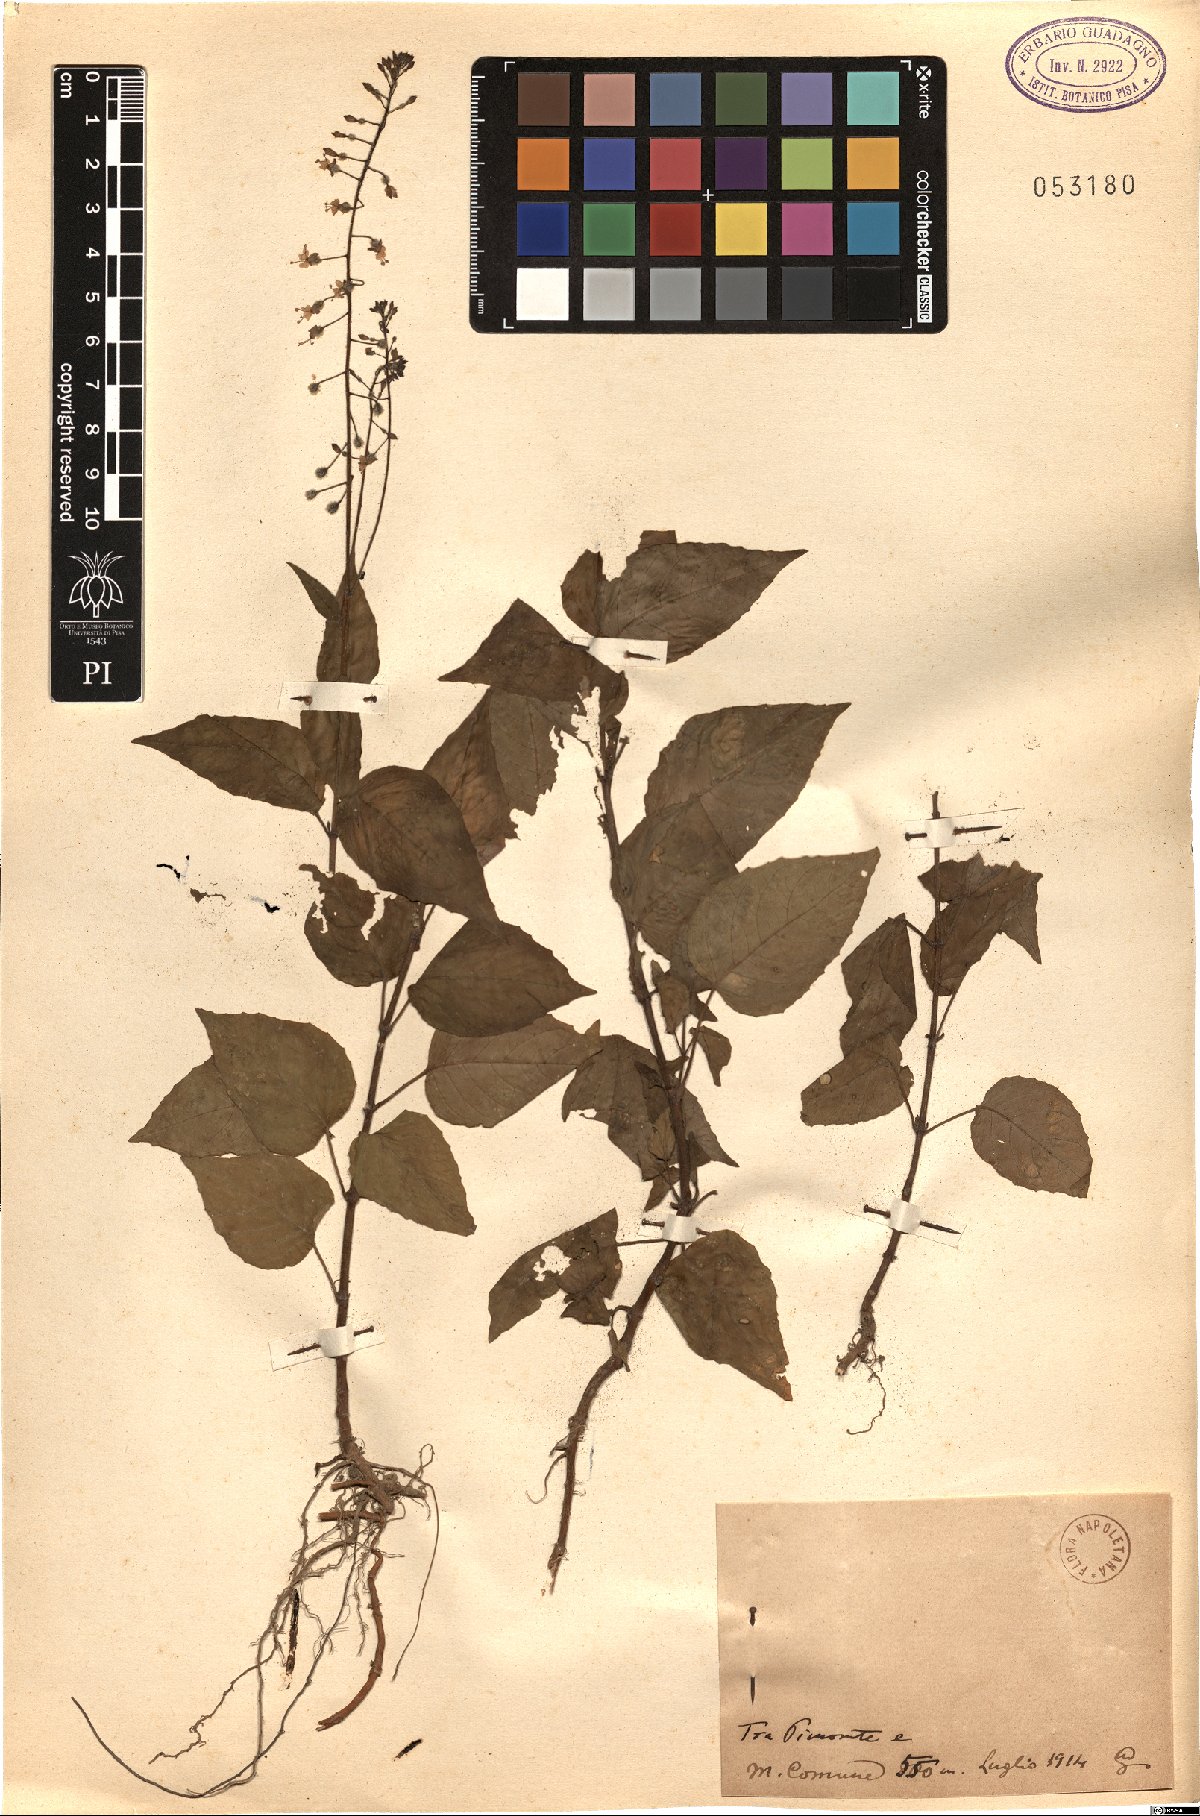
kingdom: Plantae
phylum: Tracheophyta
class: Magnoliopsida
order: Myrtales
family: Onagraceae
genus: Circaea
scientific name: Circaea
